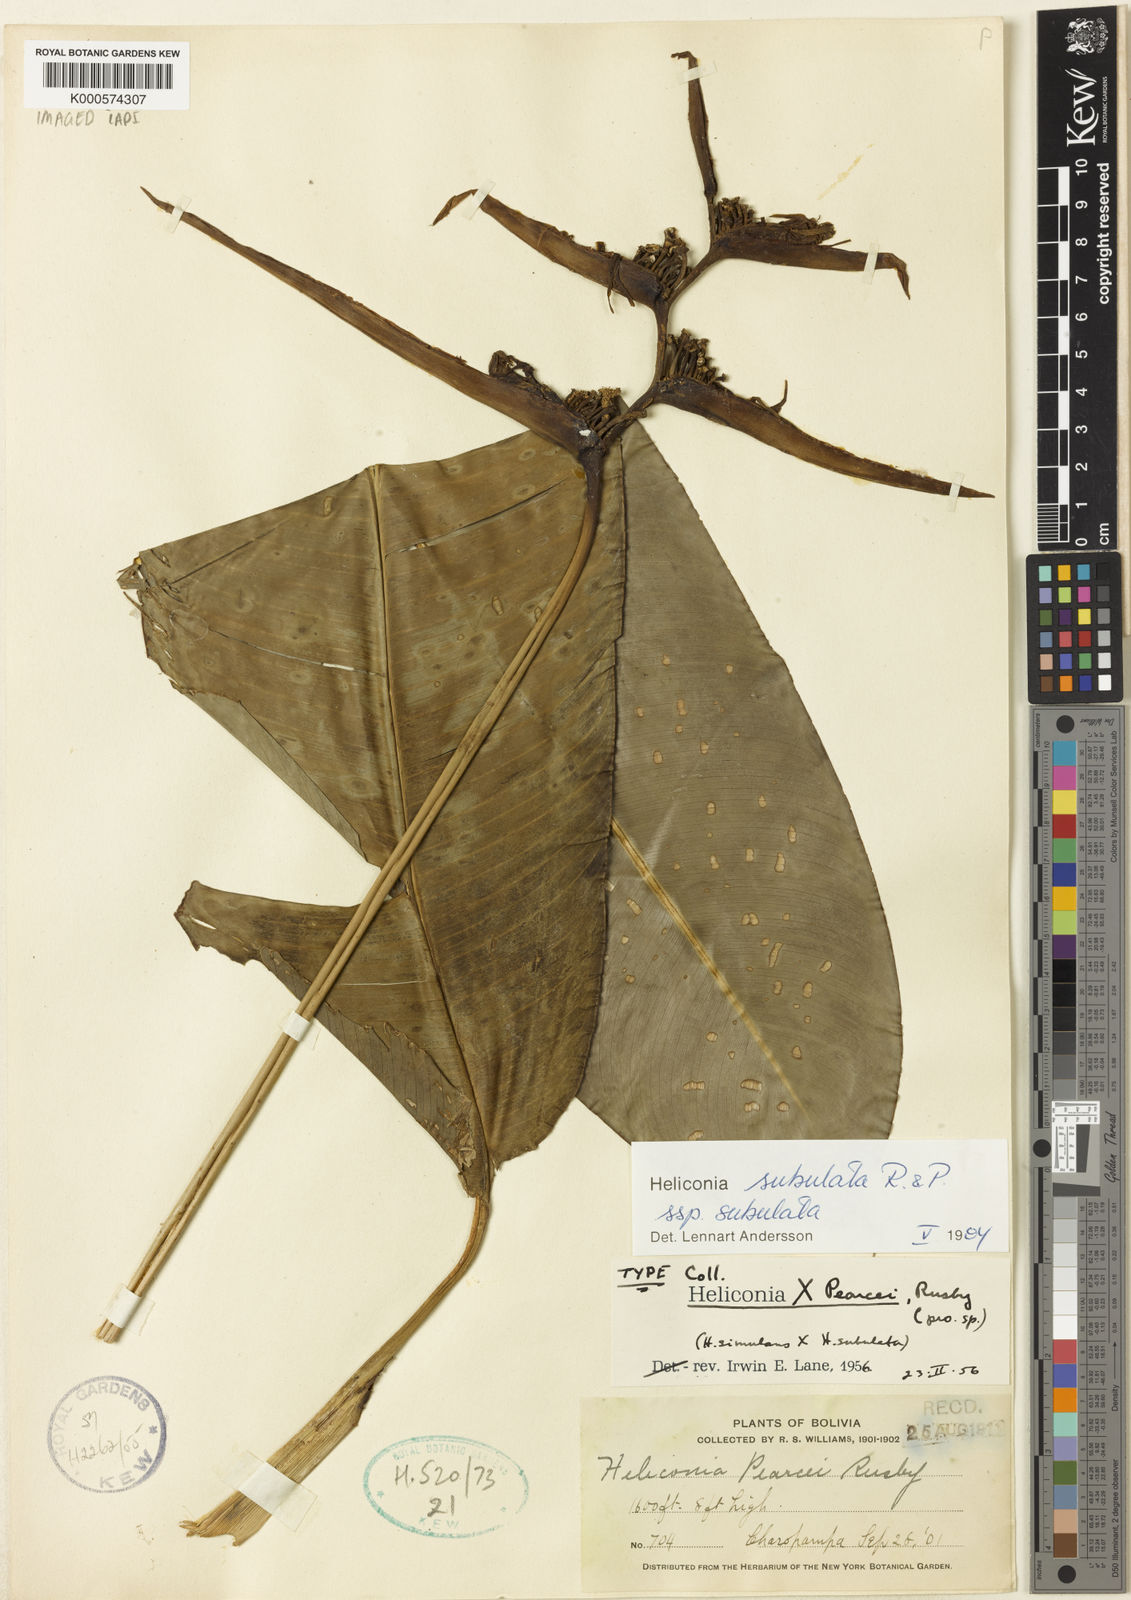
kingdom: Plantae
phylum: Tracheophyta
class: Liliopsida
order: Zingiberales
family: Heliconiaceae
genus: Heliconia
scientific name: Heliconia subulata
